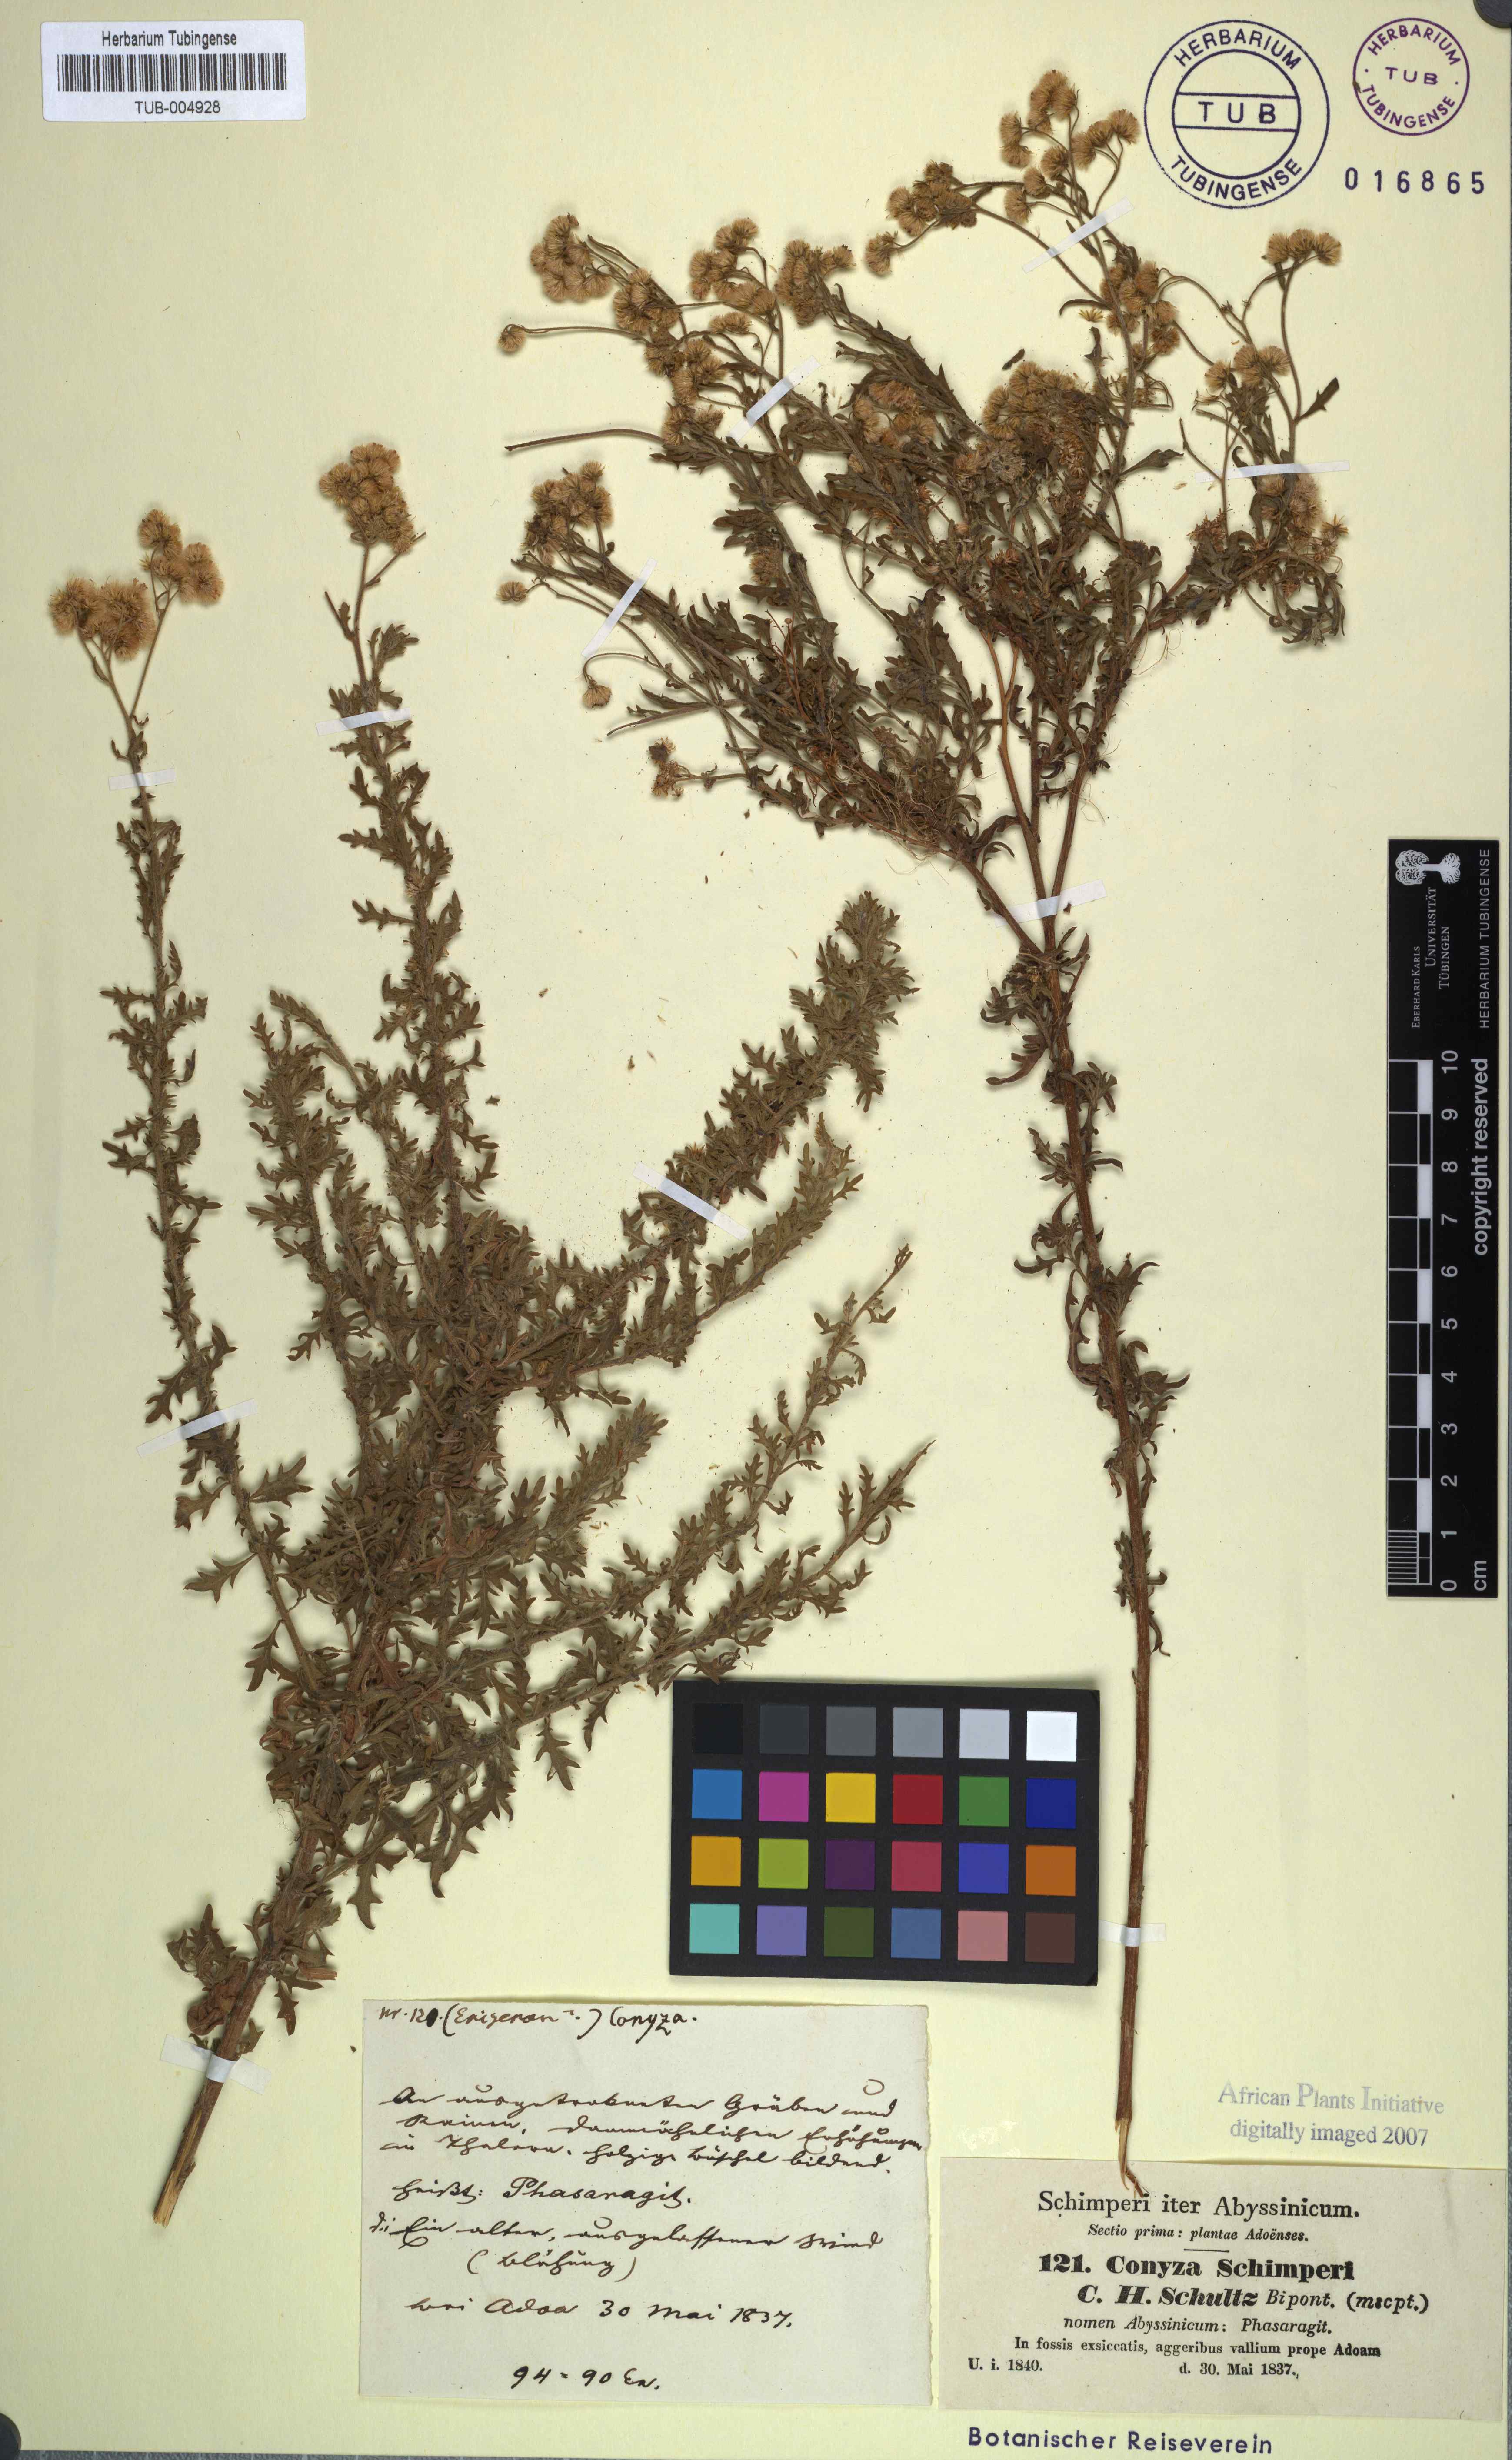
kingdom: Plantae
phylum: Tracheophyta
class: Magnoliopsida
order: Asterales
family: Asteraceae
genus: Nidorella
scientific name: Nidorella triloba
